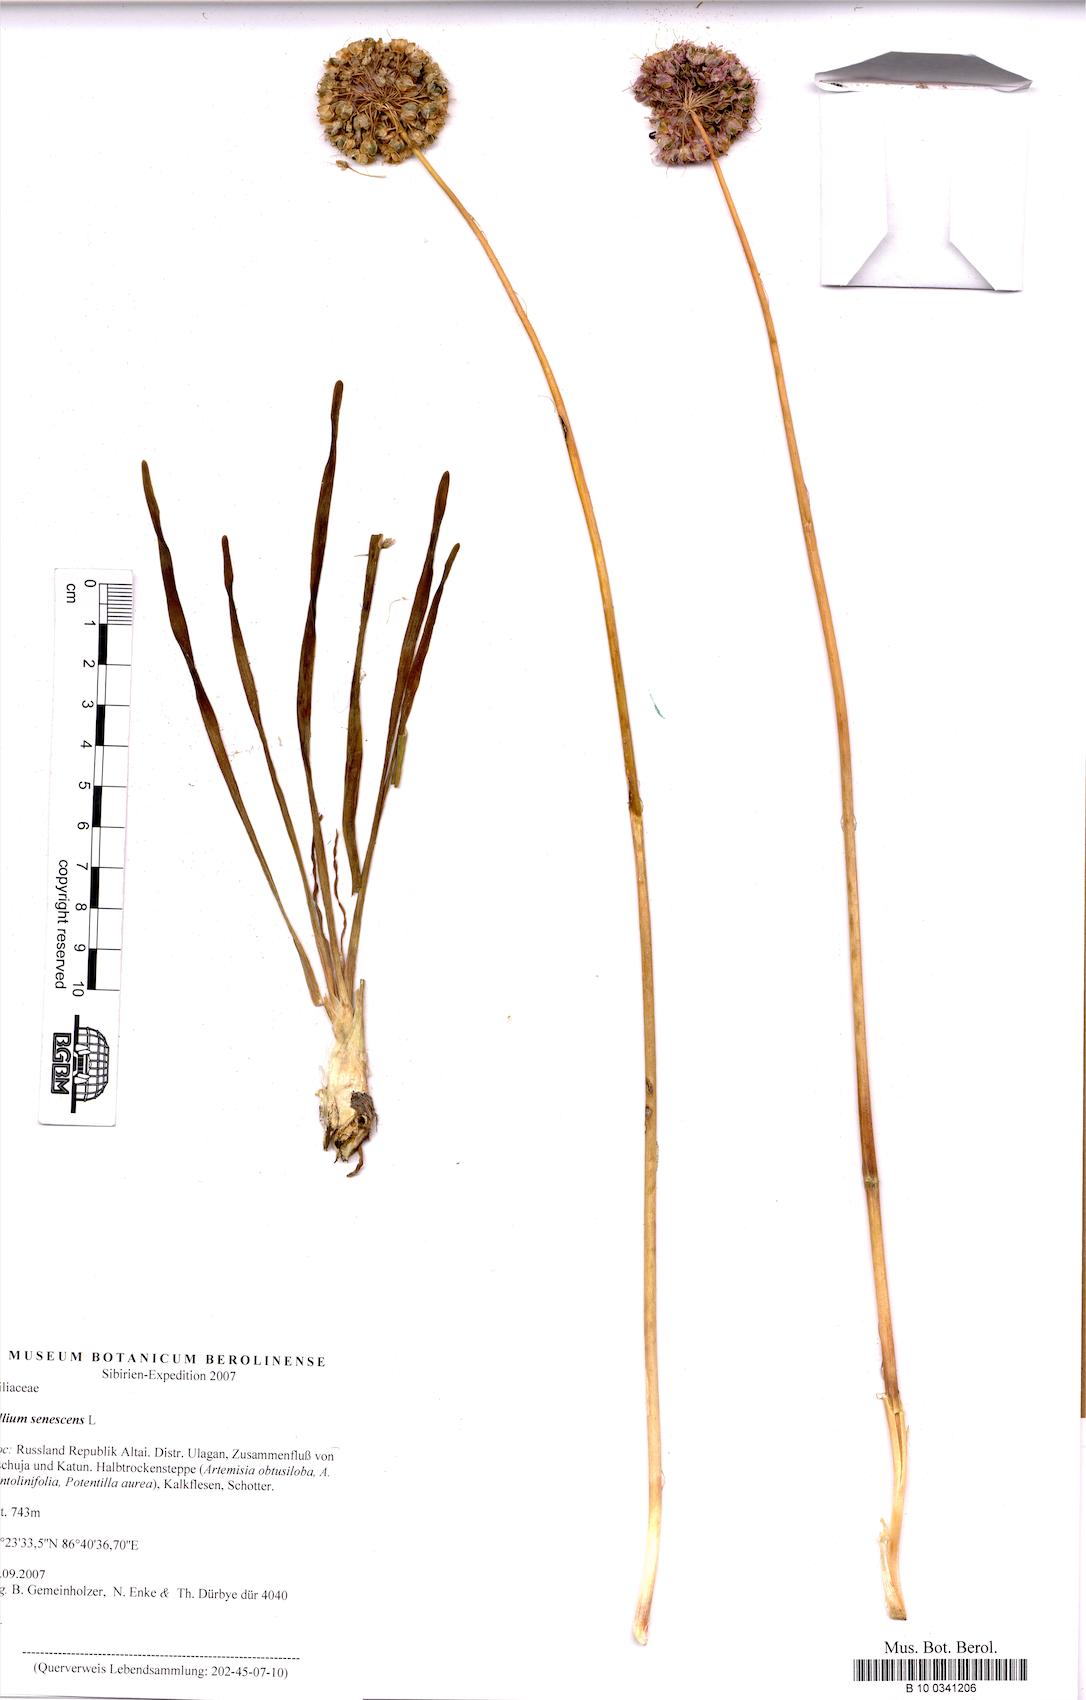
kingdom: Plantae
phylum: Tracheophyta
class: Liliopsida
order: Asparagales
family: Amaryllidaceae
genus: Allium
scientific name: Allium senescens
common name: German garlic
